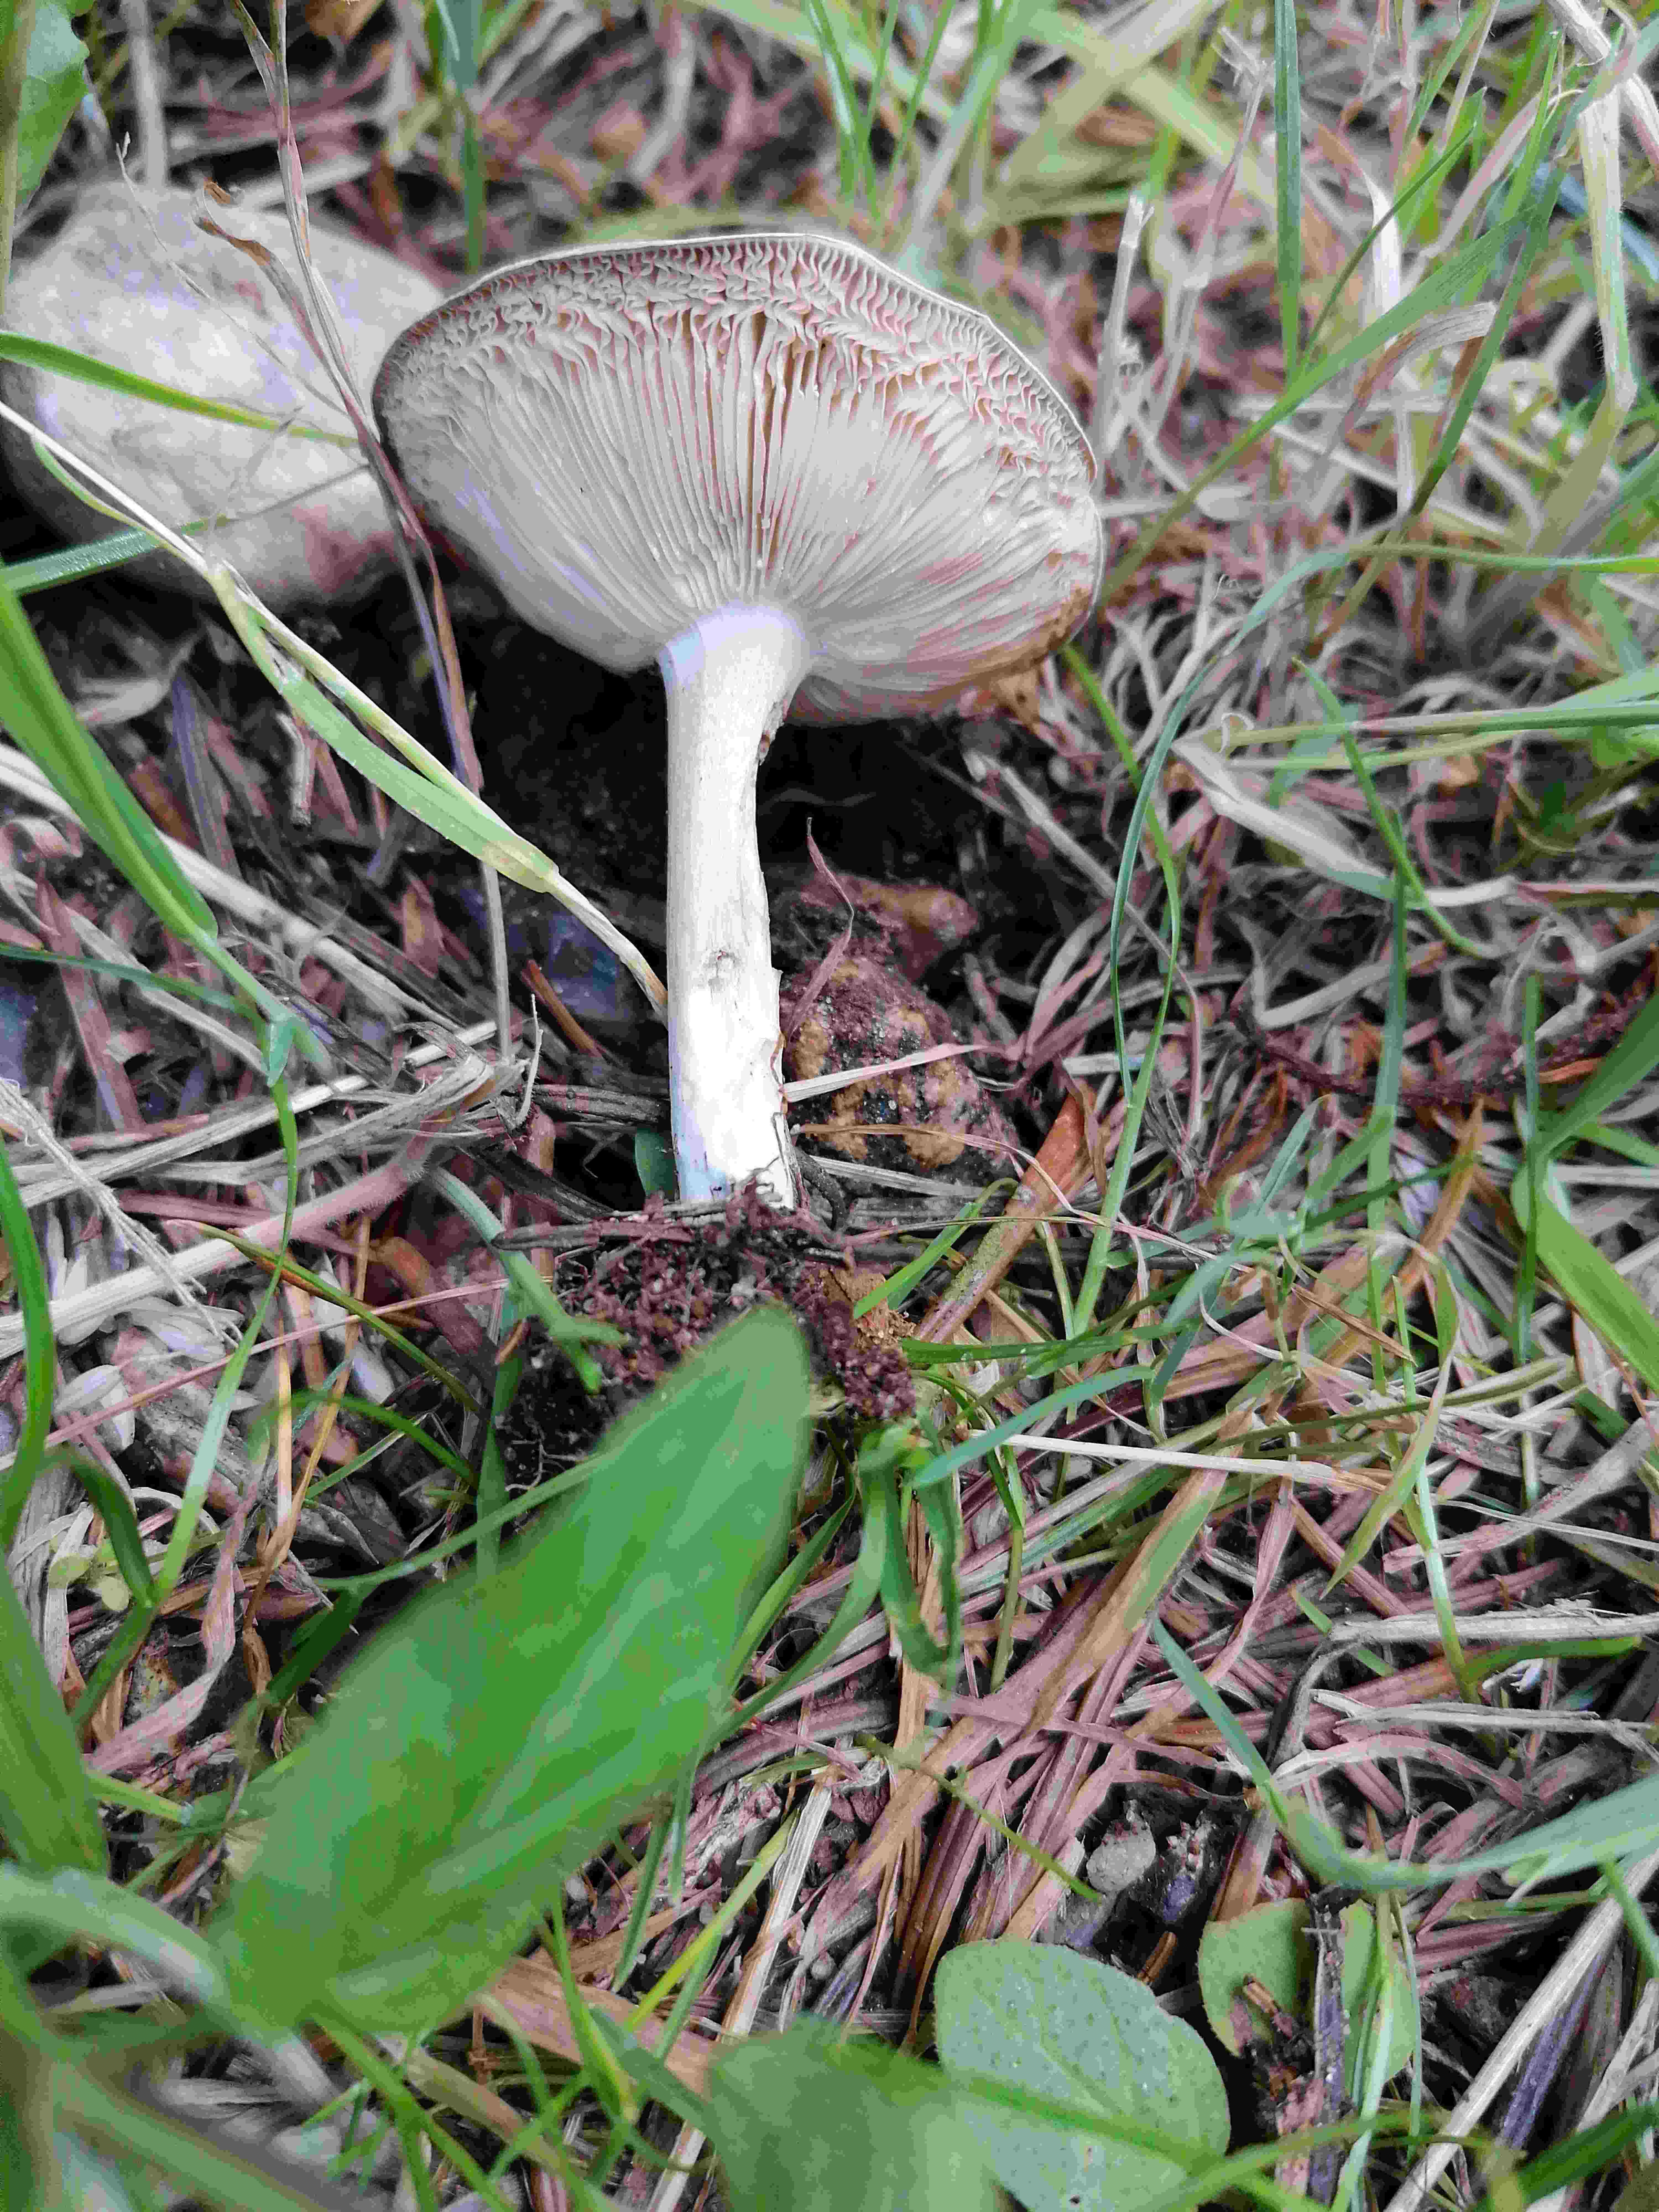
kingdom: Fungi
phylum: Basidiomycota
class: Agaricomycetes
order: Agaricales
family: Tricholomataceae
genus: Melanoleuca
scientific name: Melanoleuca
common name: munkehat
